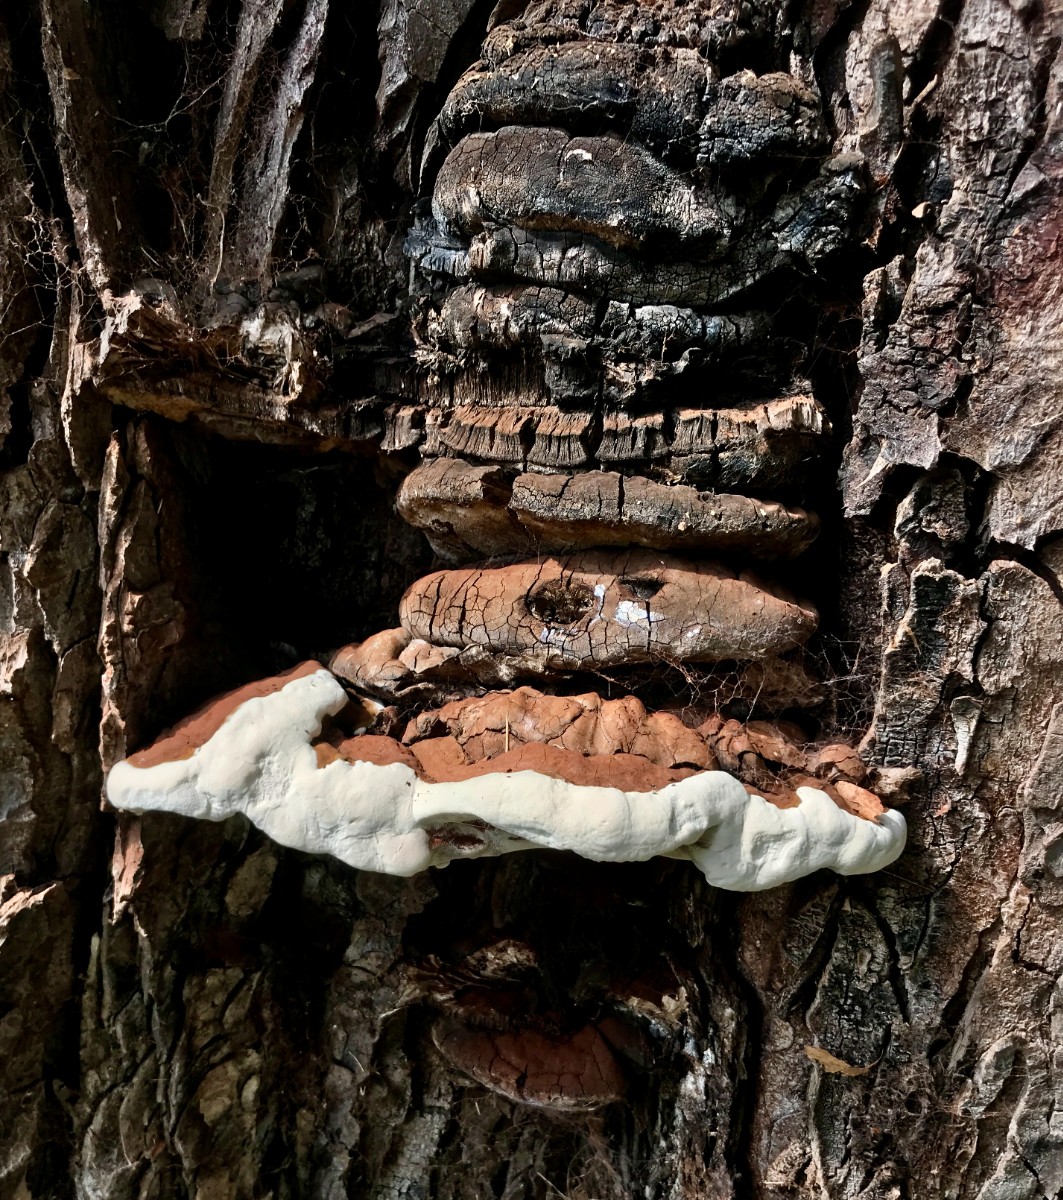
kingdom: Fungi
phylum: Basidiomycota
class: Agaricomycetes
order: Polyporales
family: Polyporaceae
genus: Ganoderma
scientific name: Ganoderma adspersum
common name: grov lakporesvamp
